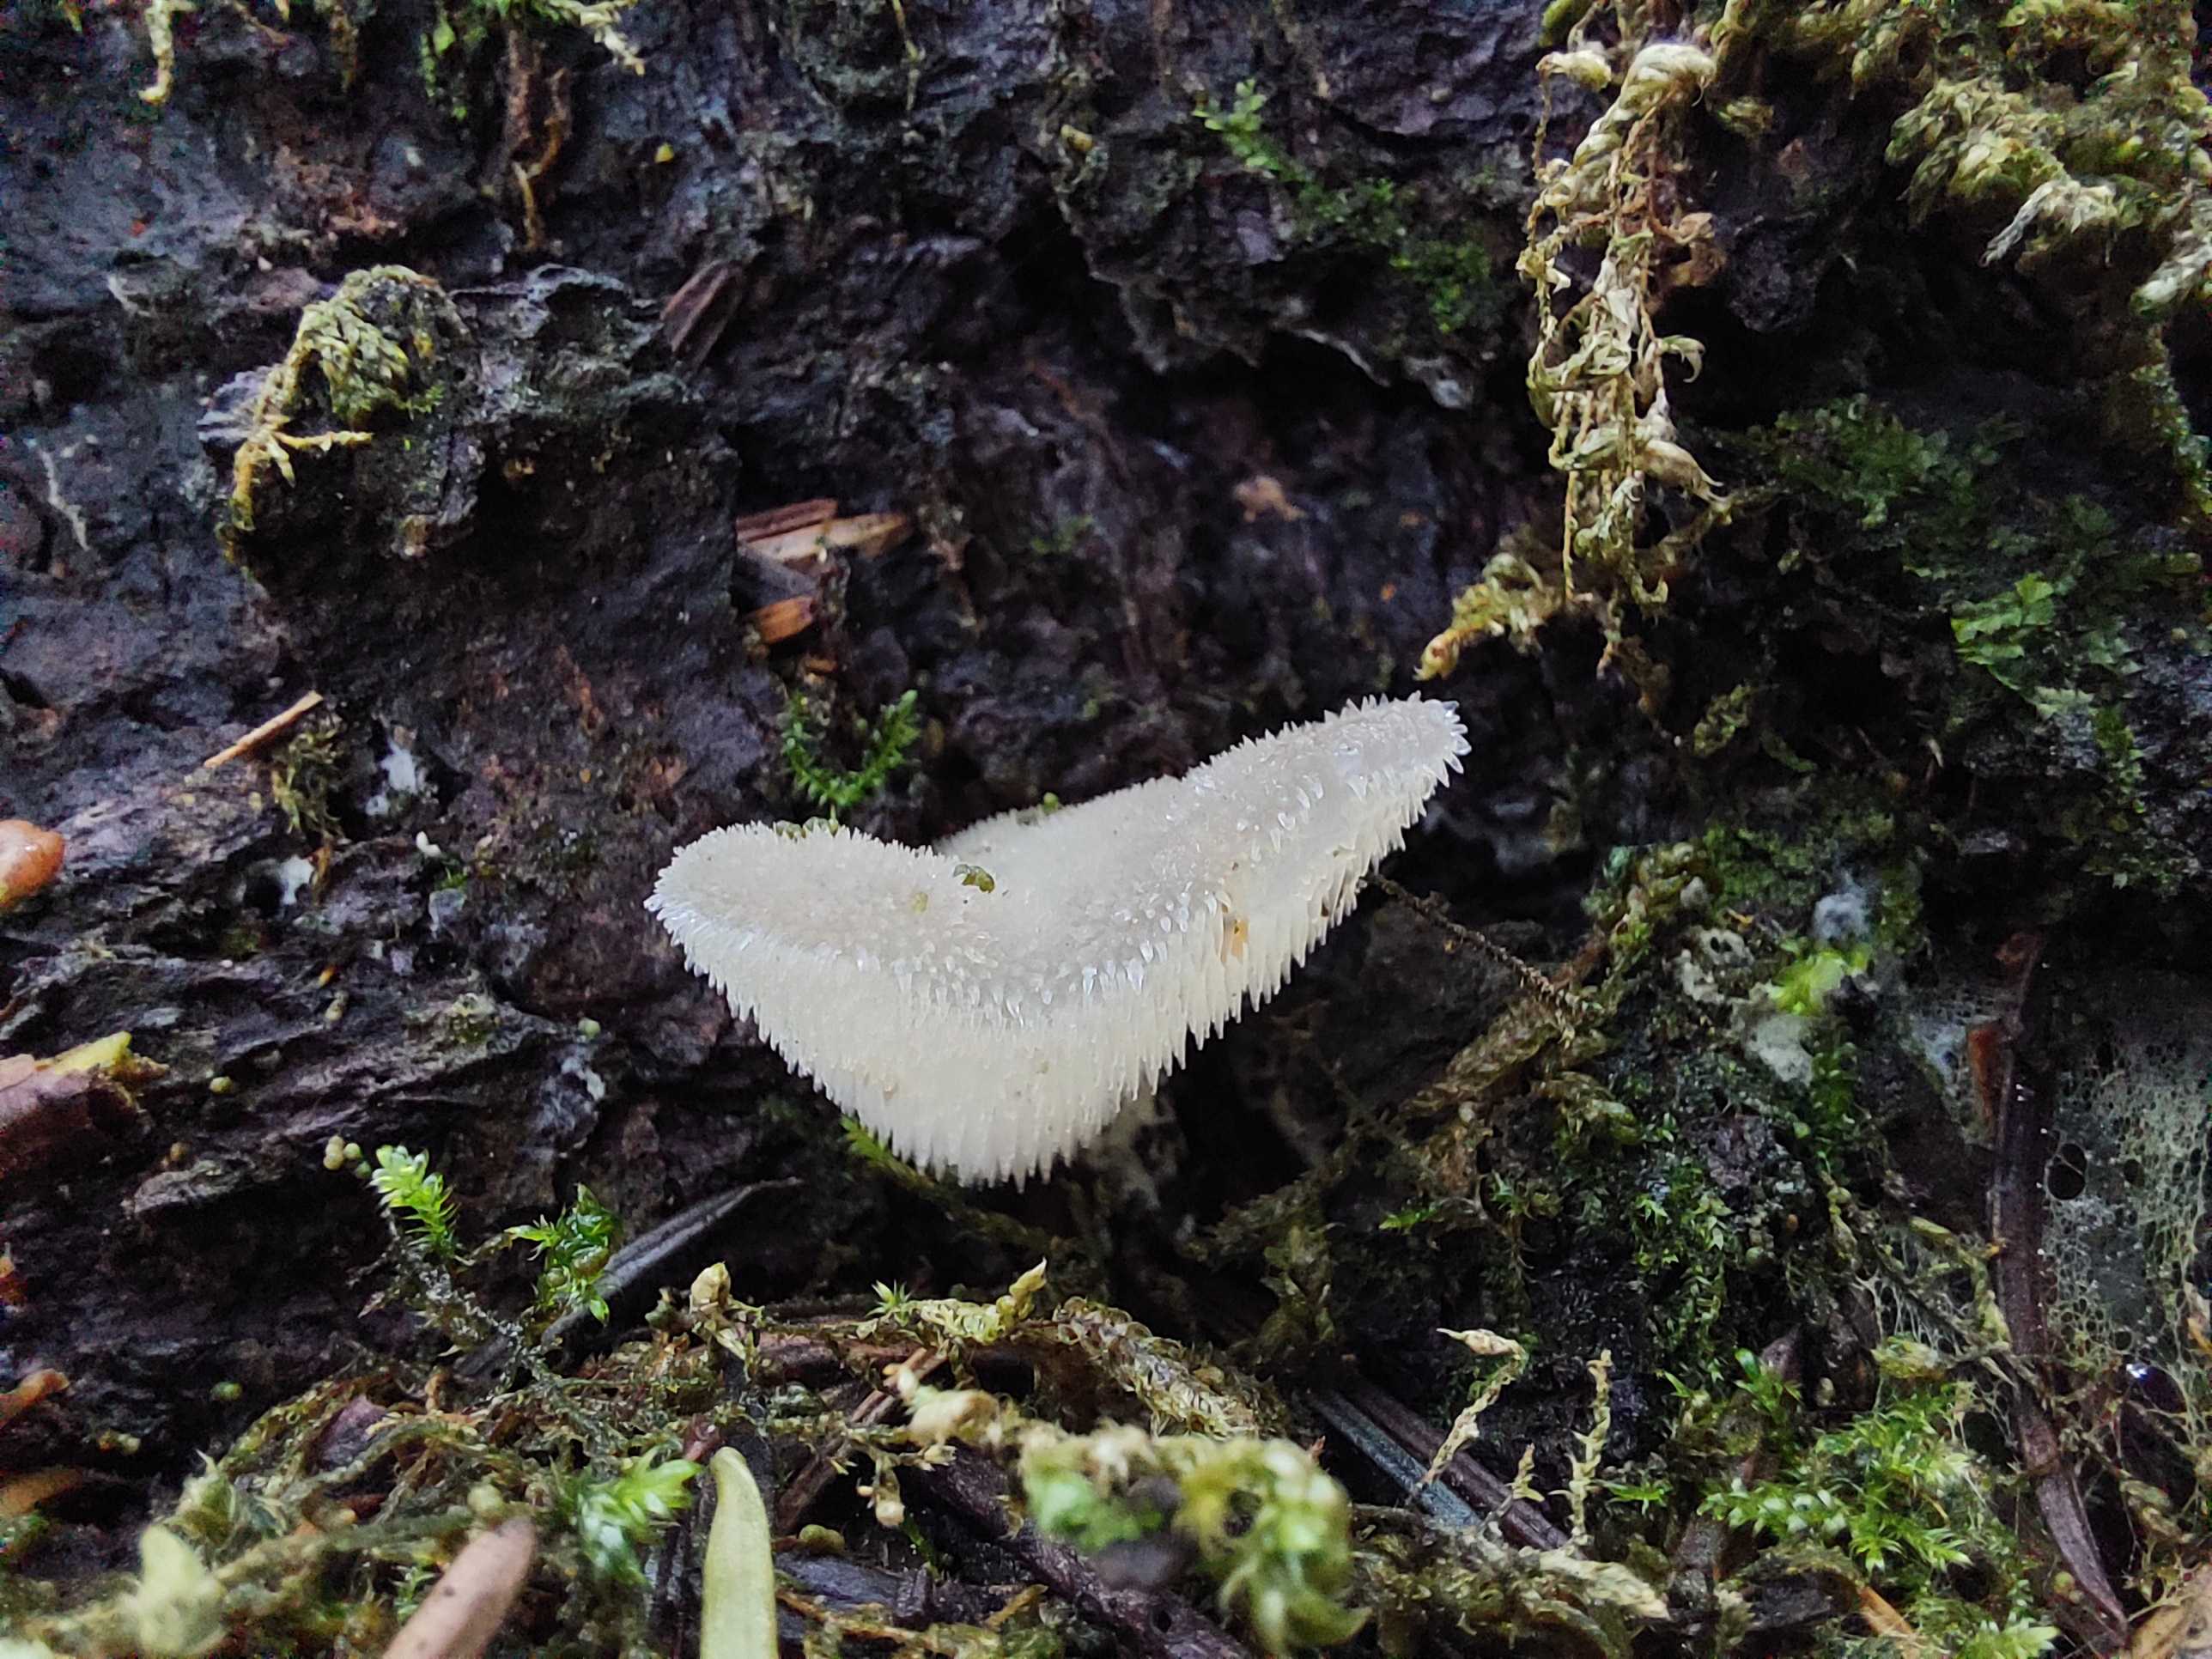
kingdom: Fungi
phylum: Basidiomycota
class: Agaricomycetes
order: Auriculariales
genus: Pseudohydnum
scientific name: Pseudohydnum gelatinosum
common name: bævretand
